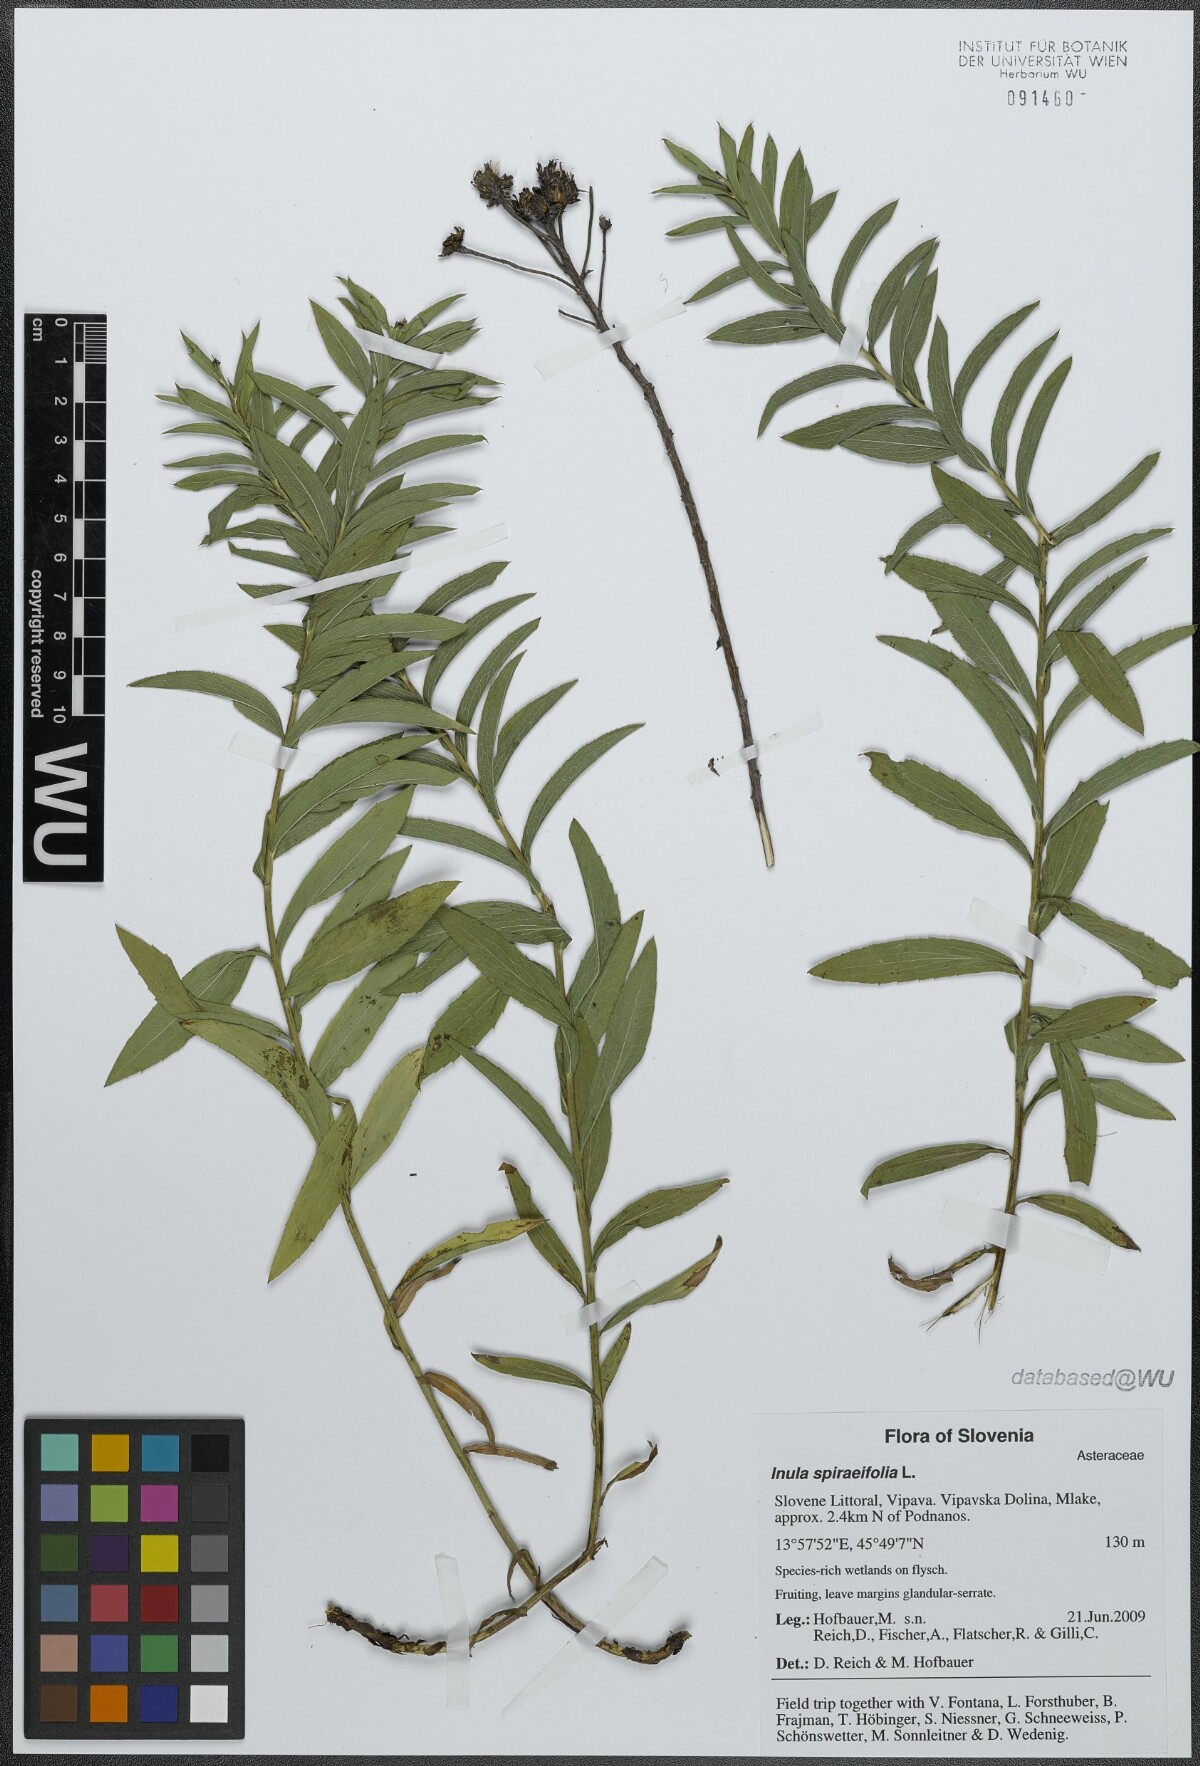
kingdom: Plantae
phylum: Tracheophyta
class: Magnoliopsida
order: Asterales
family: Asteraceae
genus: Pentanema
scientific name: Pentanema spiraeifolium
